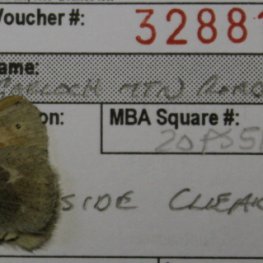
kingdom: Animalia
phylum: Arthropoda
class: Insecta
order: Lepidoptera
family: Nymphalidae
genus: Coenonympha
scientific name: Coenonympha tullia
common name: Large Heath
